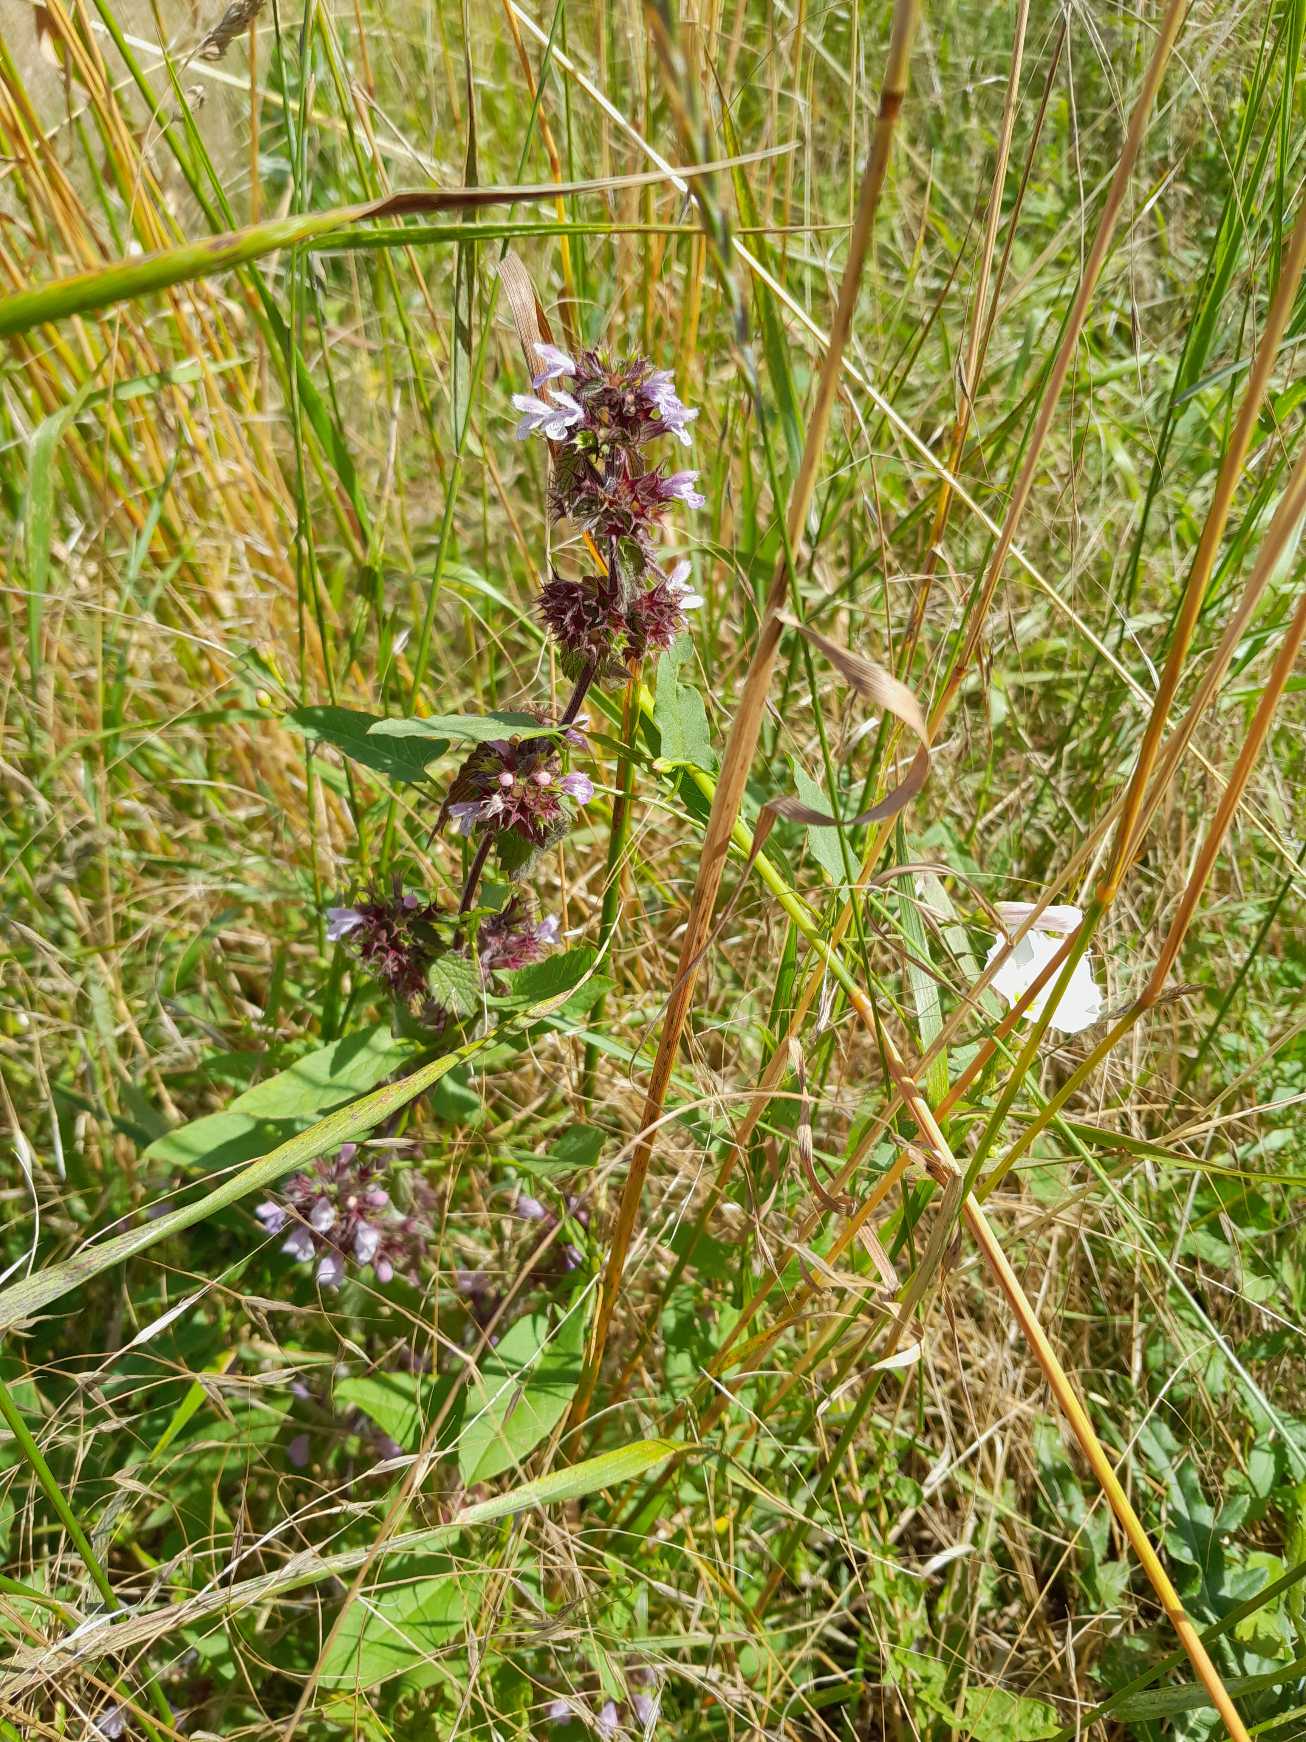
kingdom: Plantae
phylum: Tracheophyta
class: Magnoliopsida
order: Lamiales
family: Lamiaceae
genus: Ballota
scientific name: Ballota nigra
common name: Tandbæger
